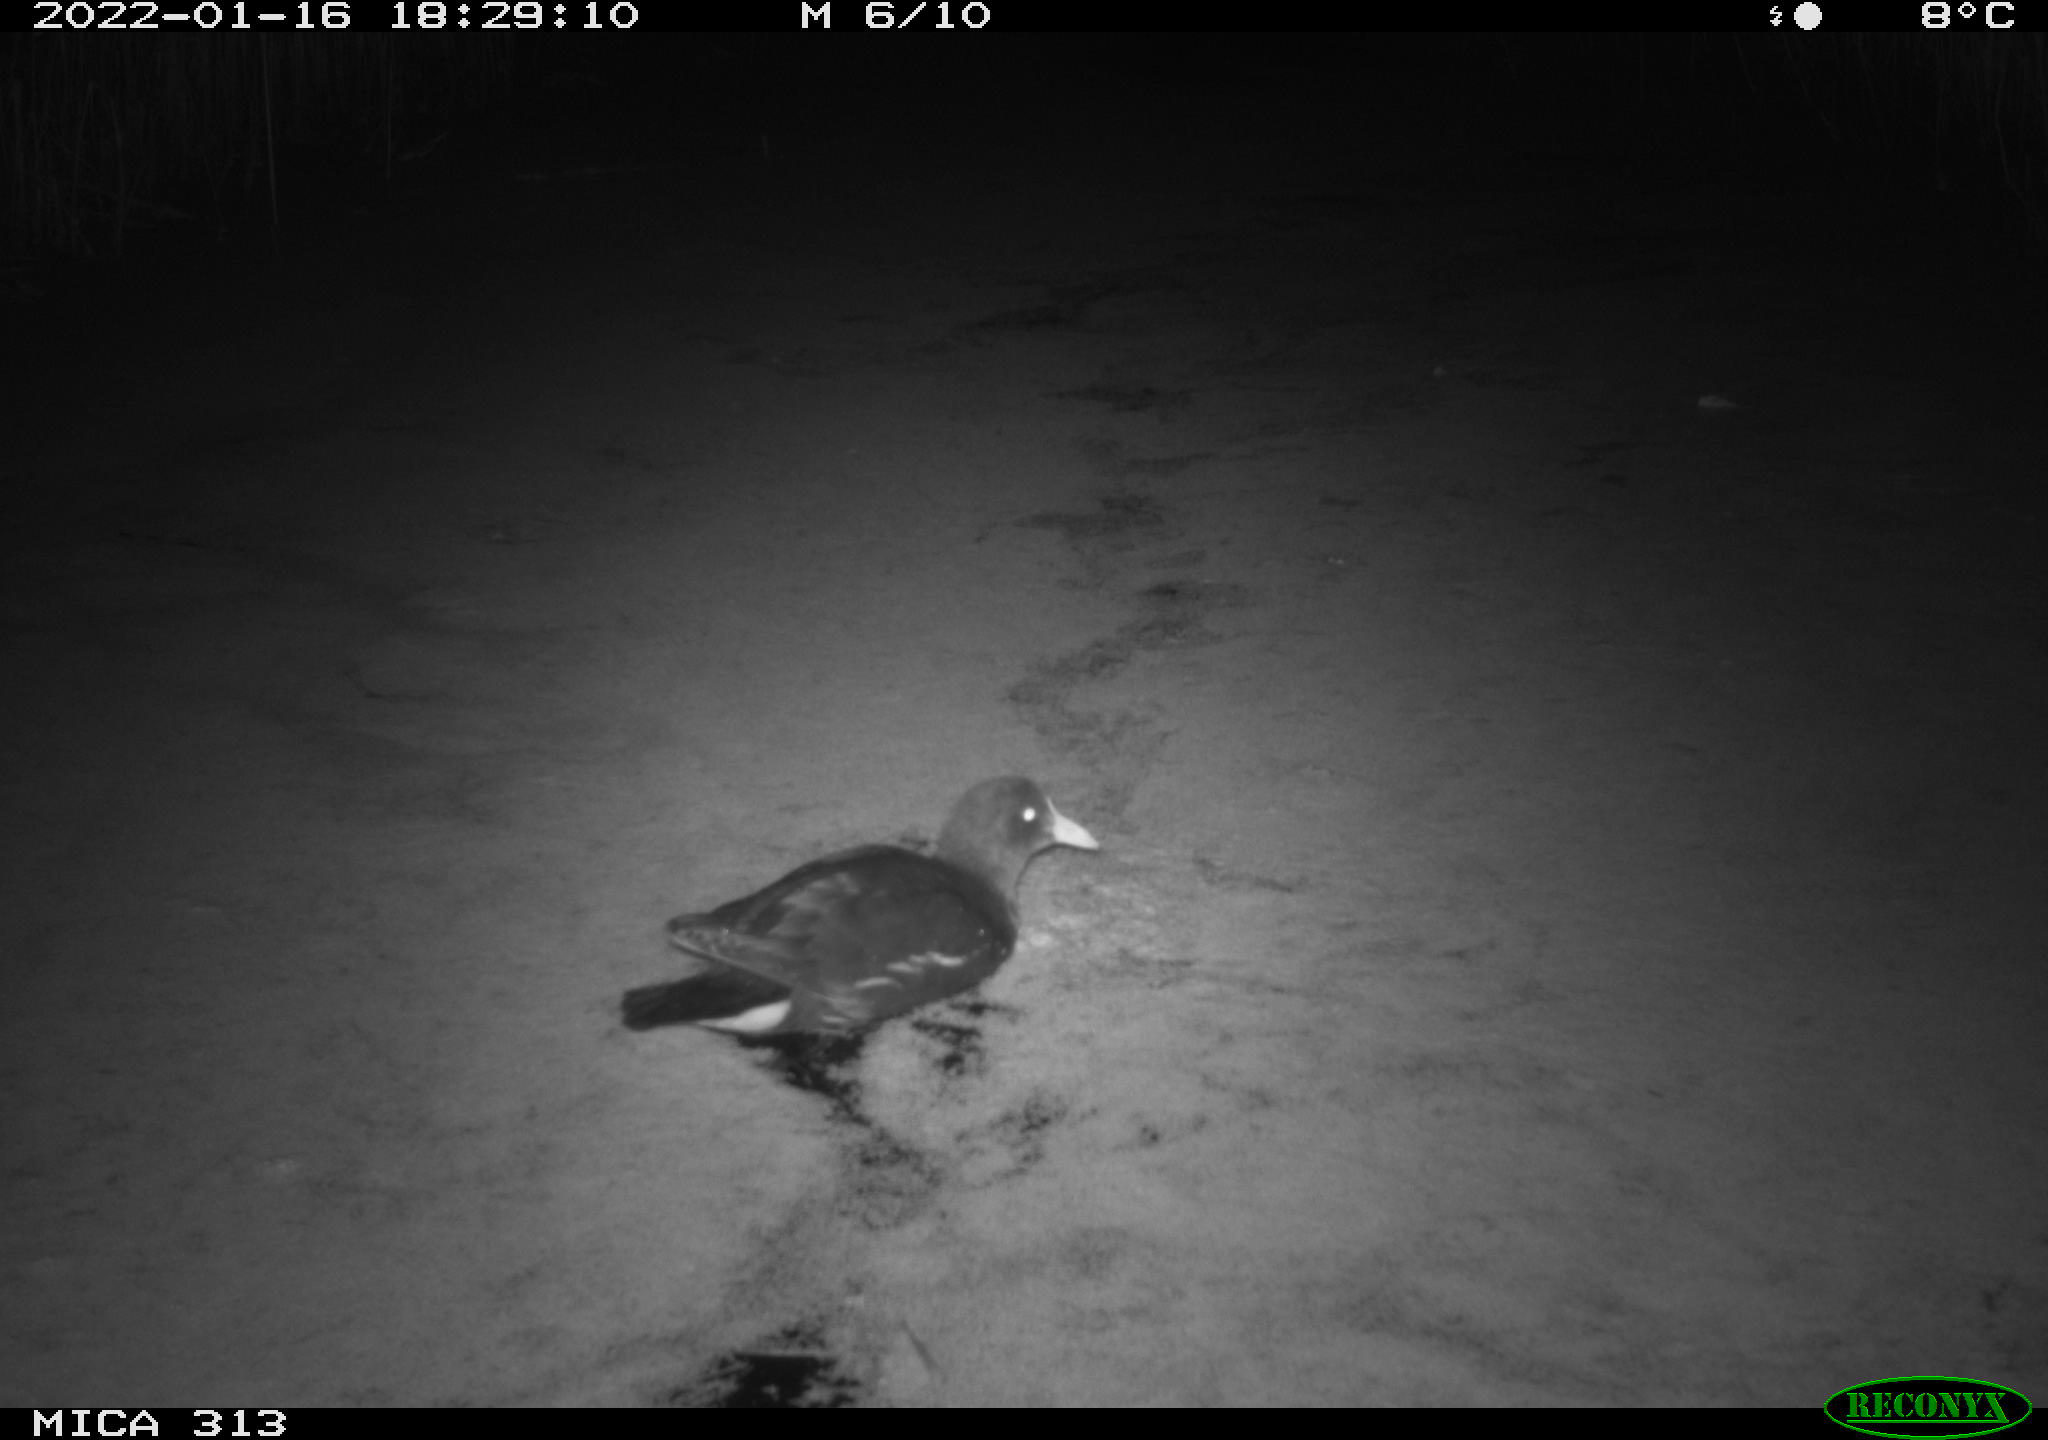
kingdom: Animalia
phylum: Chordata
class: Aves
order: Gruiformes
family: Rallidae
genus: Fulica
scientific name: Fulica atra
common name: Eurasian coot
